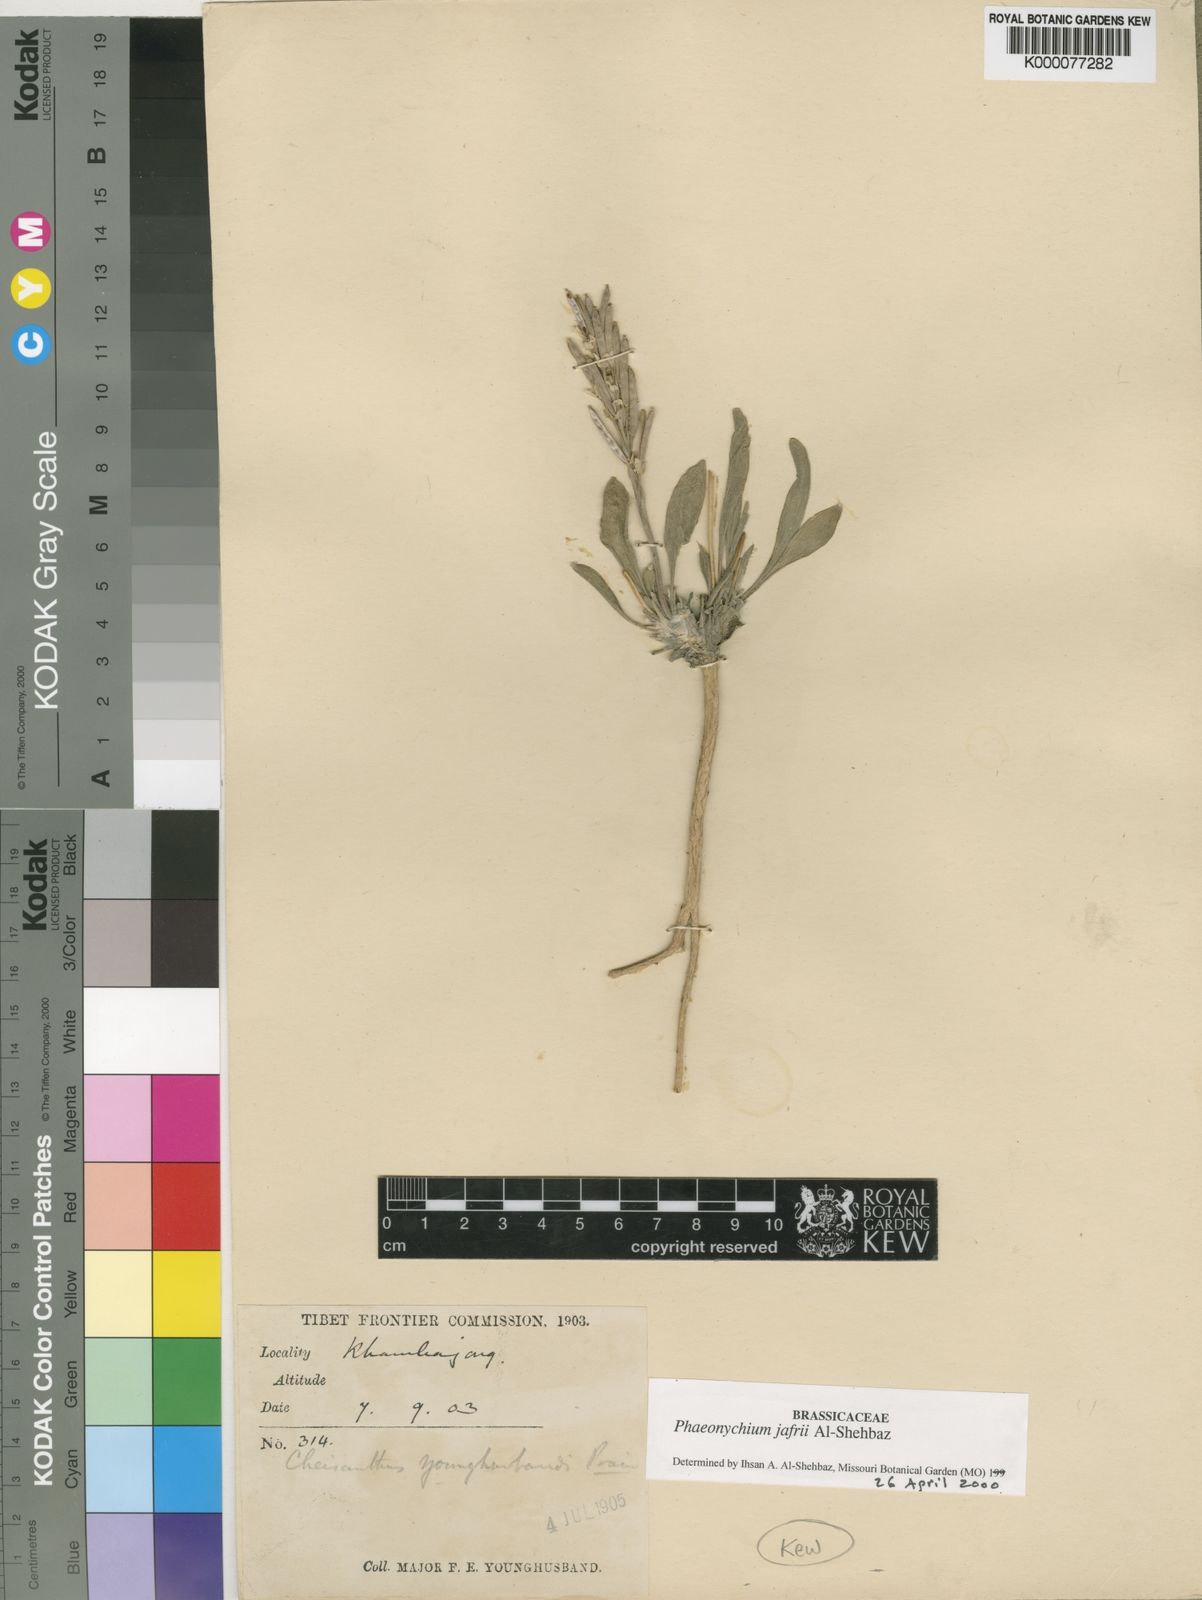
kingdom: Plantae
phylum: Tracheophyta
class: Magnoliopsida
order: Brassicales
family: Brassicaceae
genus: Solms-laubachia
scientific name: Solms-laubachia jafrii
